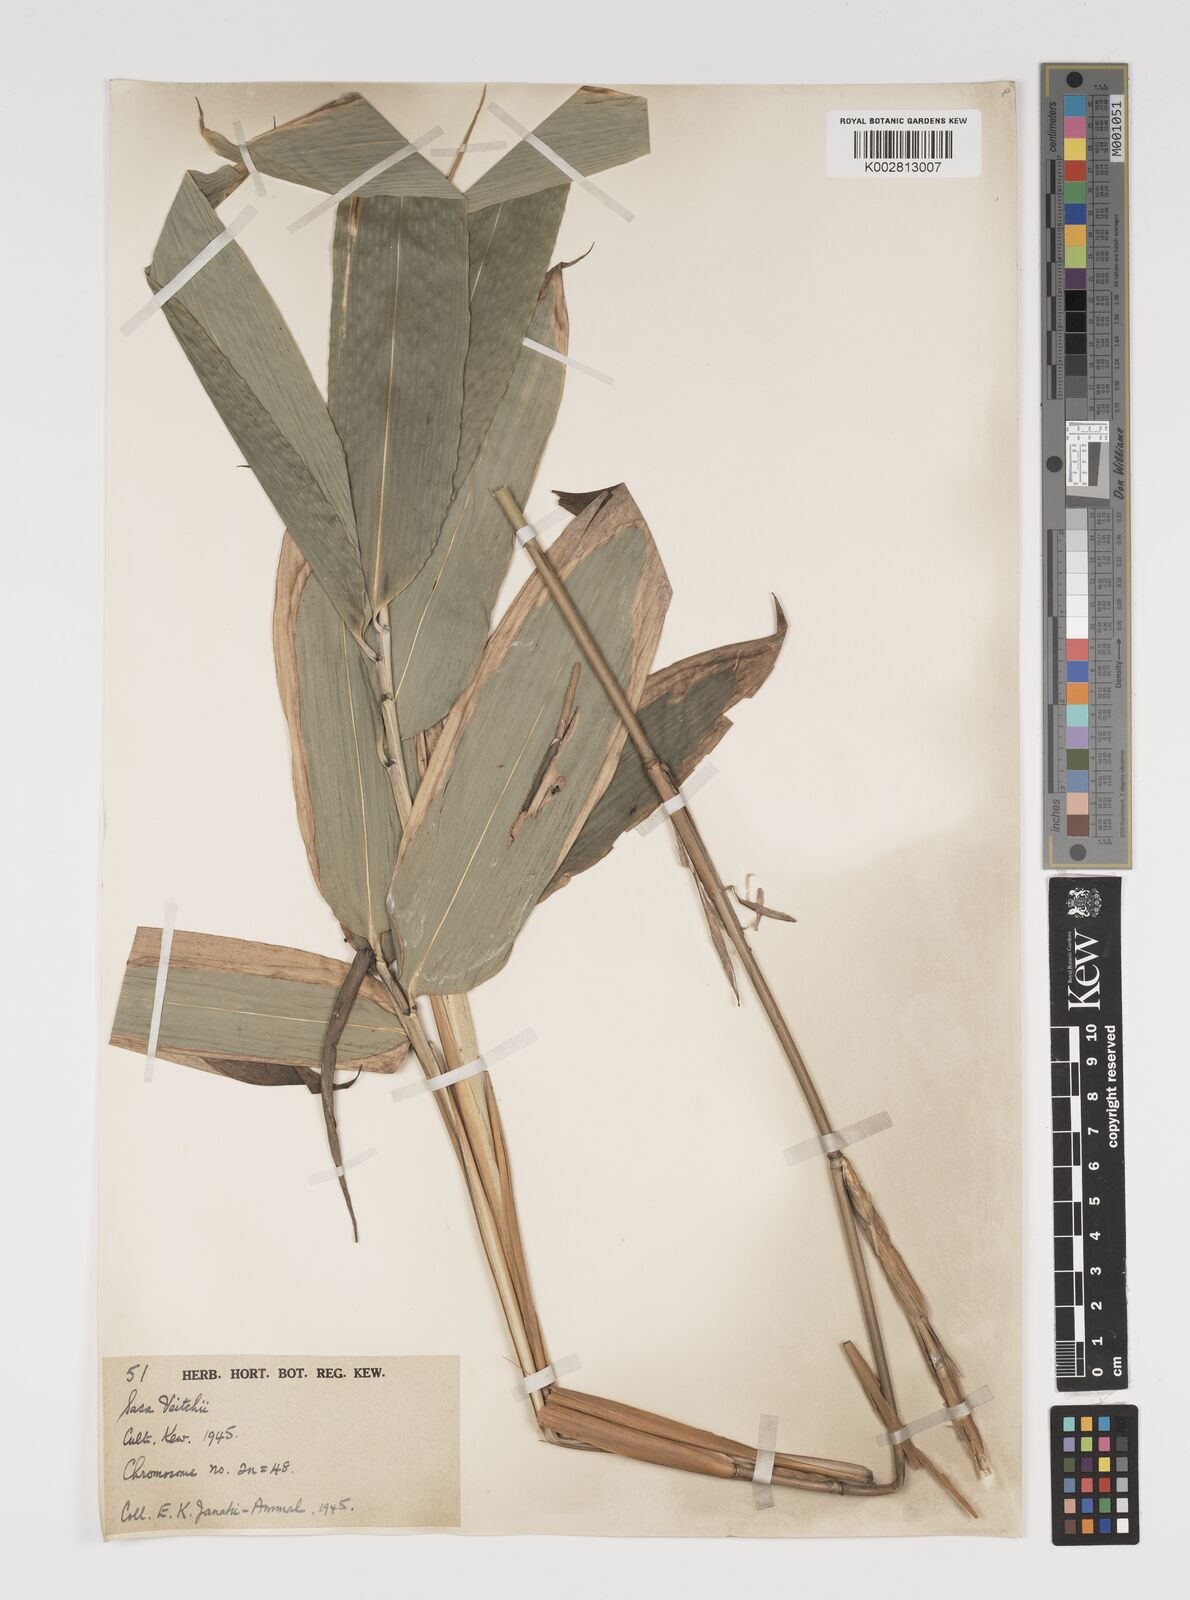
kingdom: Plantae
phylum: Tracheophyta
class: Liliopsida
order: Poales
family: Poaceae
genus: Sasa
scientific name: Sasa veitchii
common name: Veitch's bamboo
